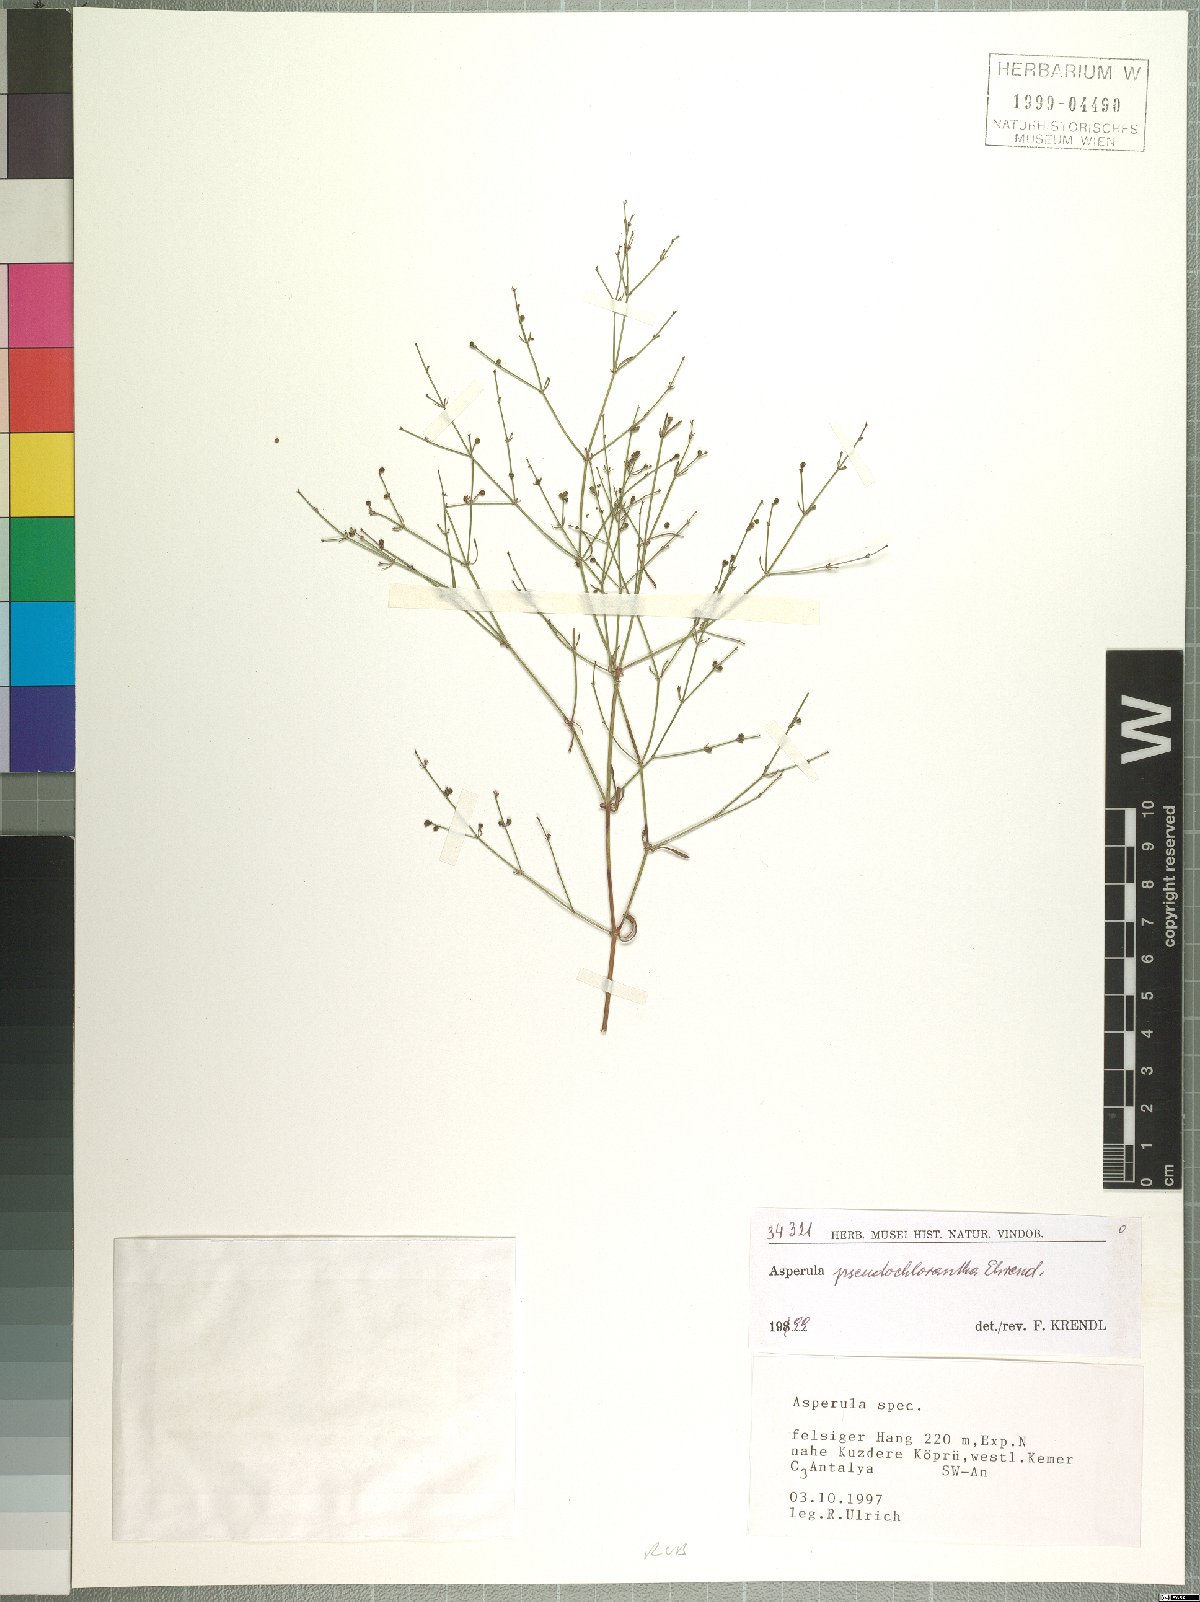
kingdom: Plantae
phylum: Tracheophyta
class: Magnoliopsida
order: Gentianales
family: Rubiaceae
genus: Thliphthisa
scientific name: Thliphthisa pseudochlorantha
